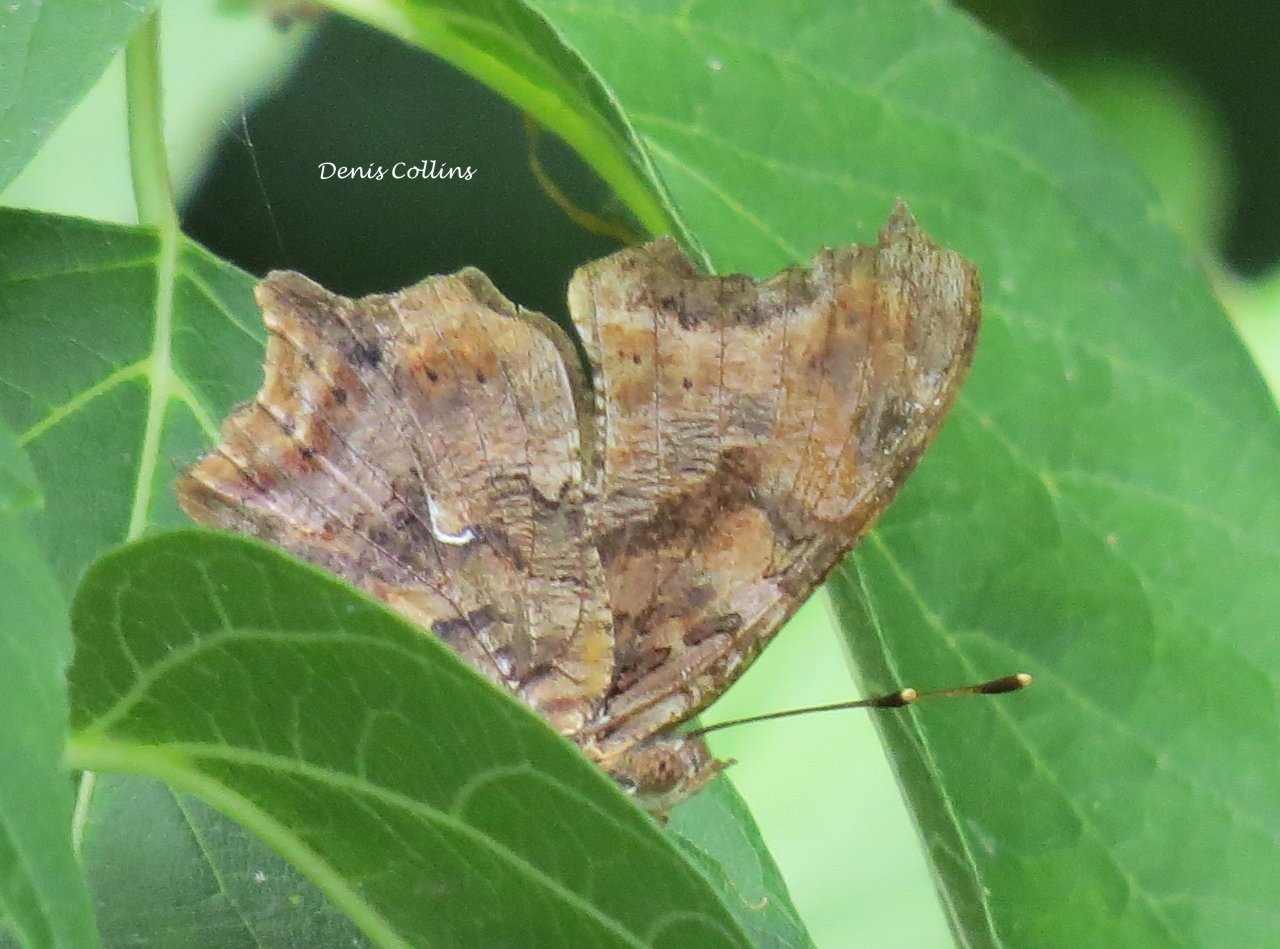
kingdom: Animalia
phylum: Arthropoda
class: Insecta
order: Lepidoptera
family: Nymphalidae
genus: Polygonia
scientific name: Polygonia comma
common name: Eastern Comma
